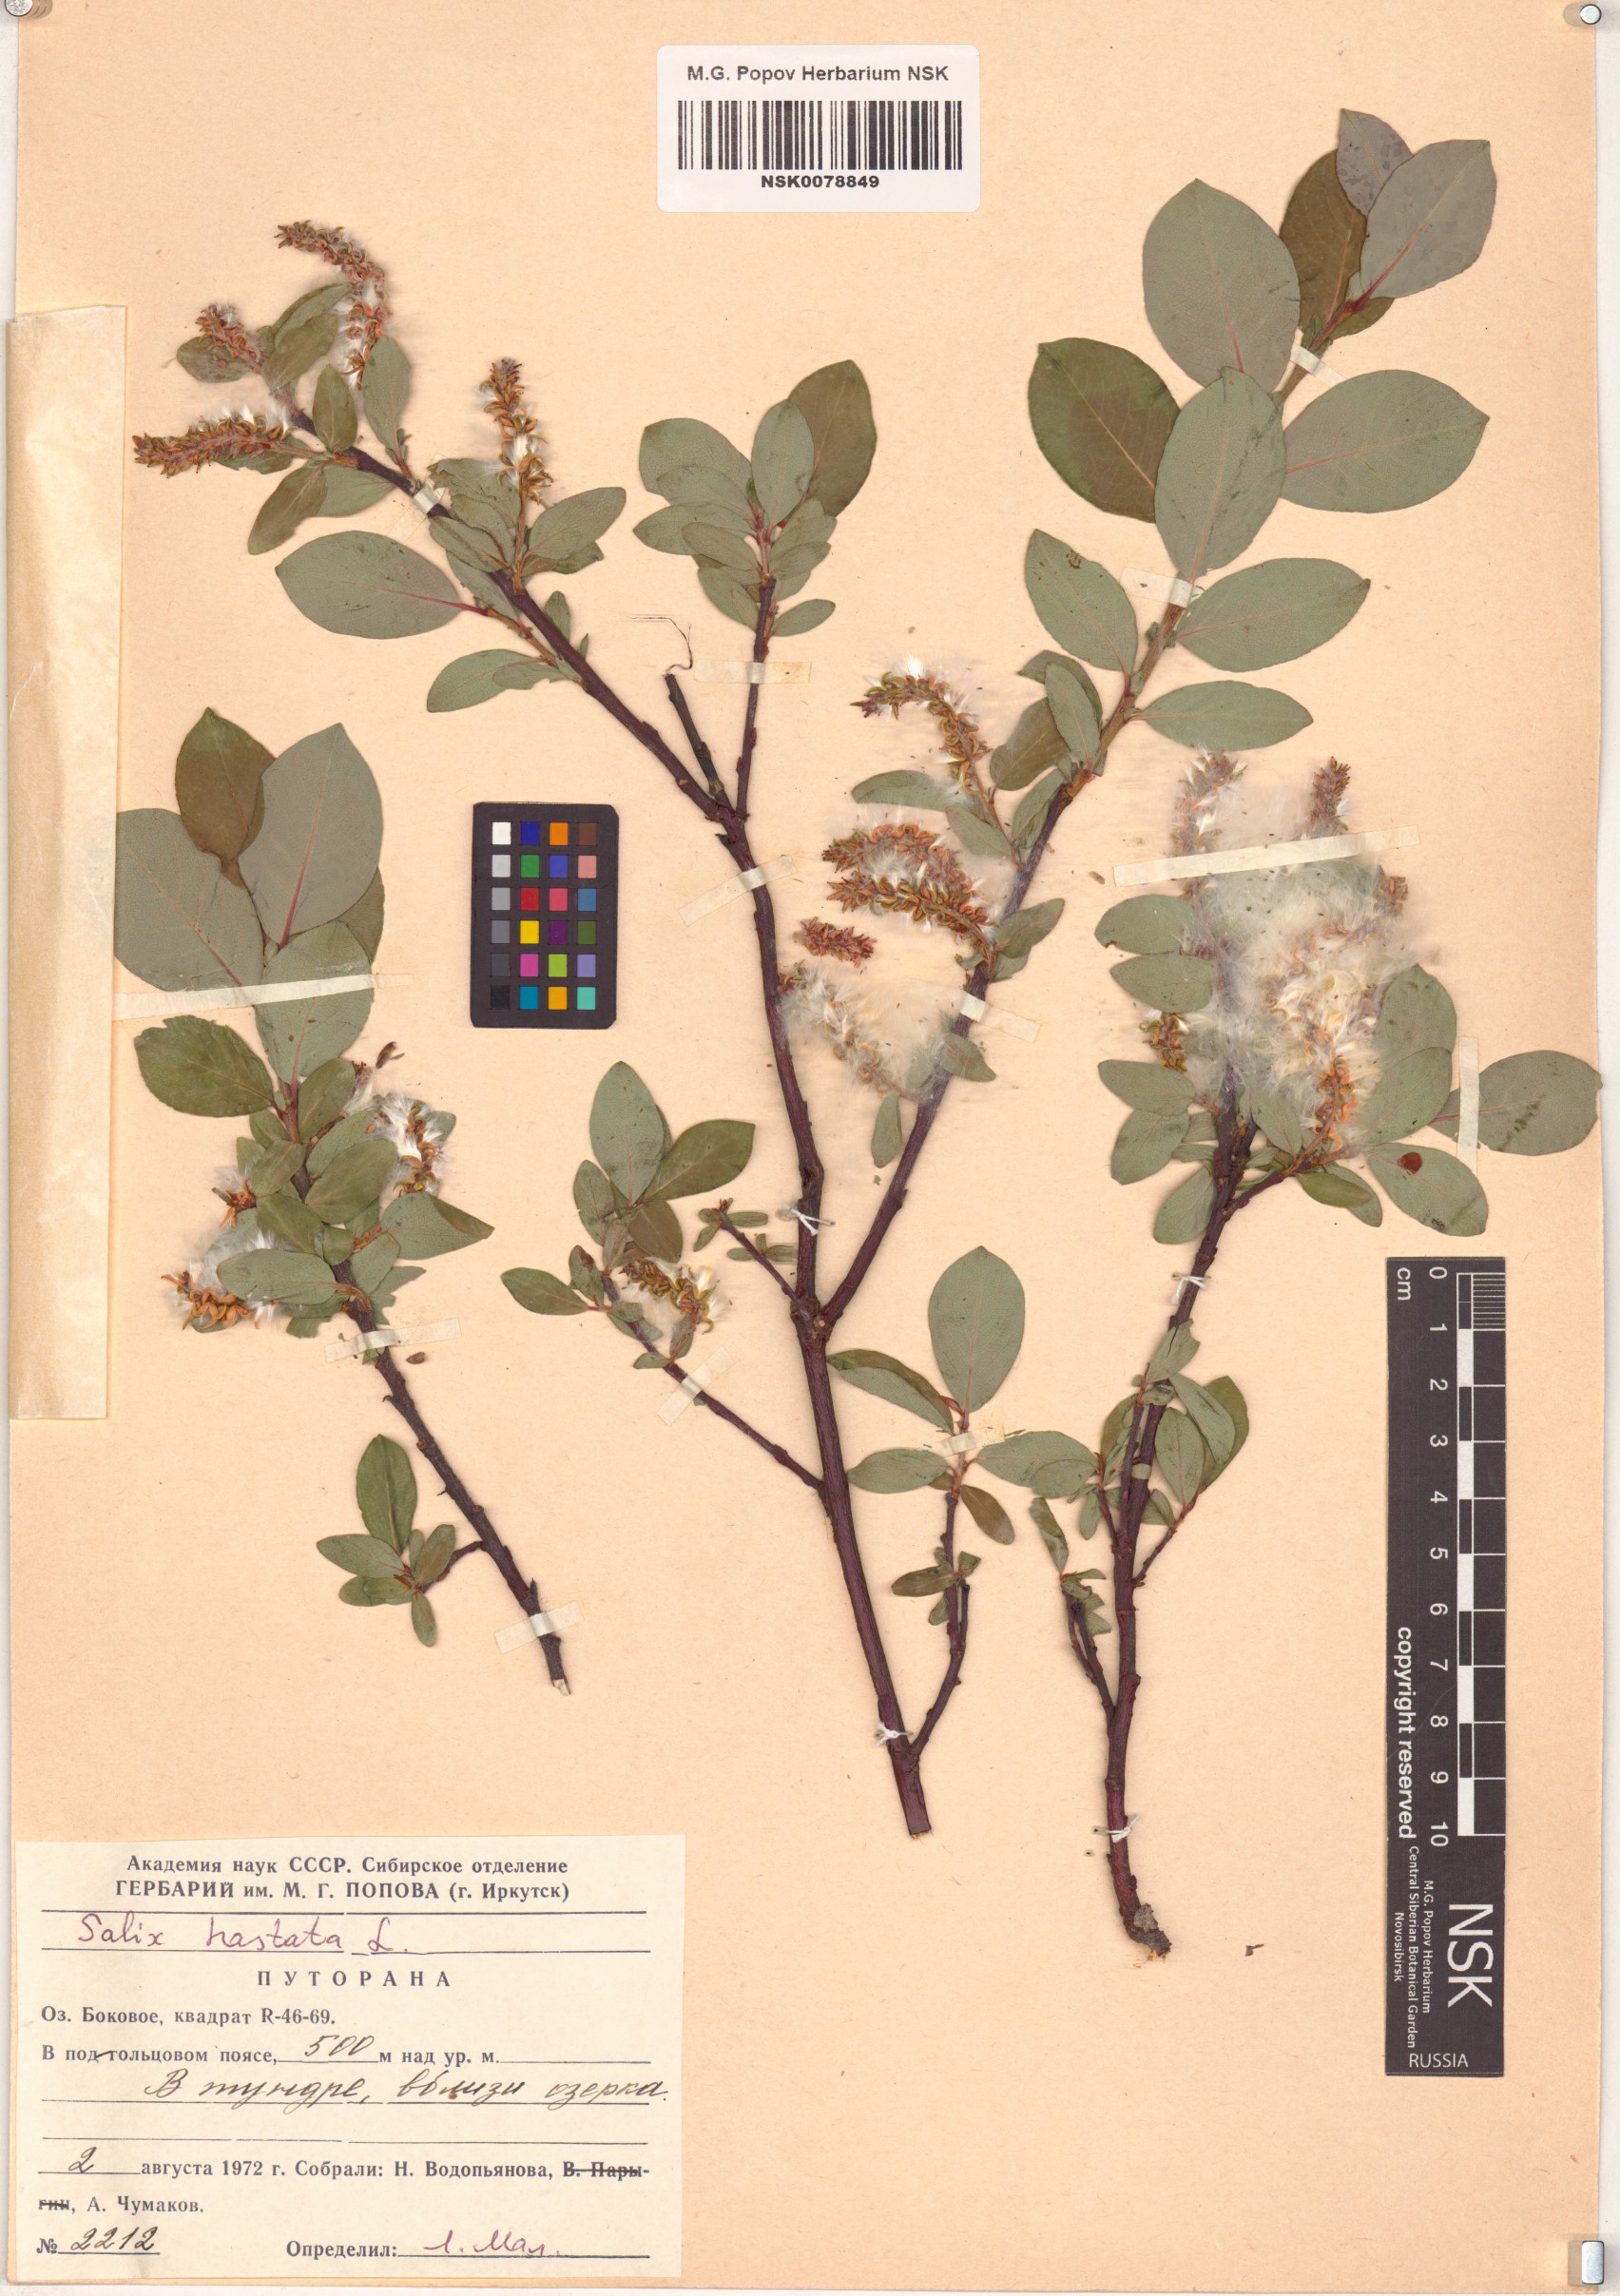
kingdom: Plantae
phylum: Tracheophyta
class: Magnoliopsida
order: Malpighiales
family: Salicaceae
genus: Salix
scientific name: Salix hastata
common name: Halberd willow
